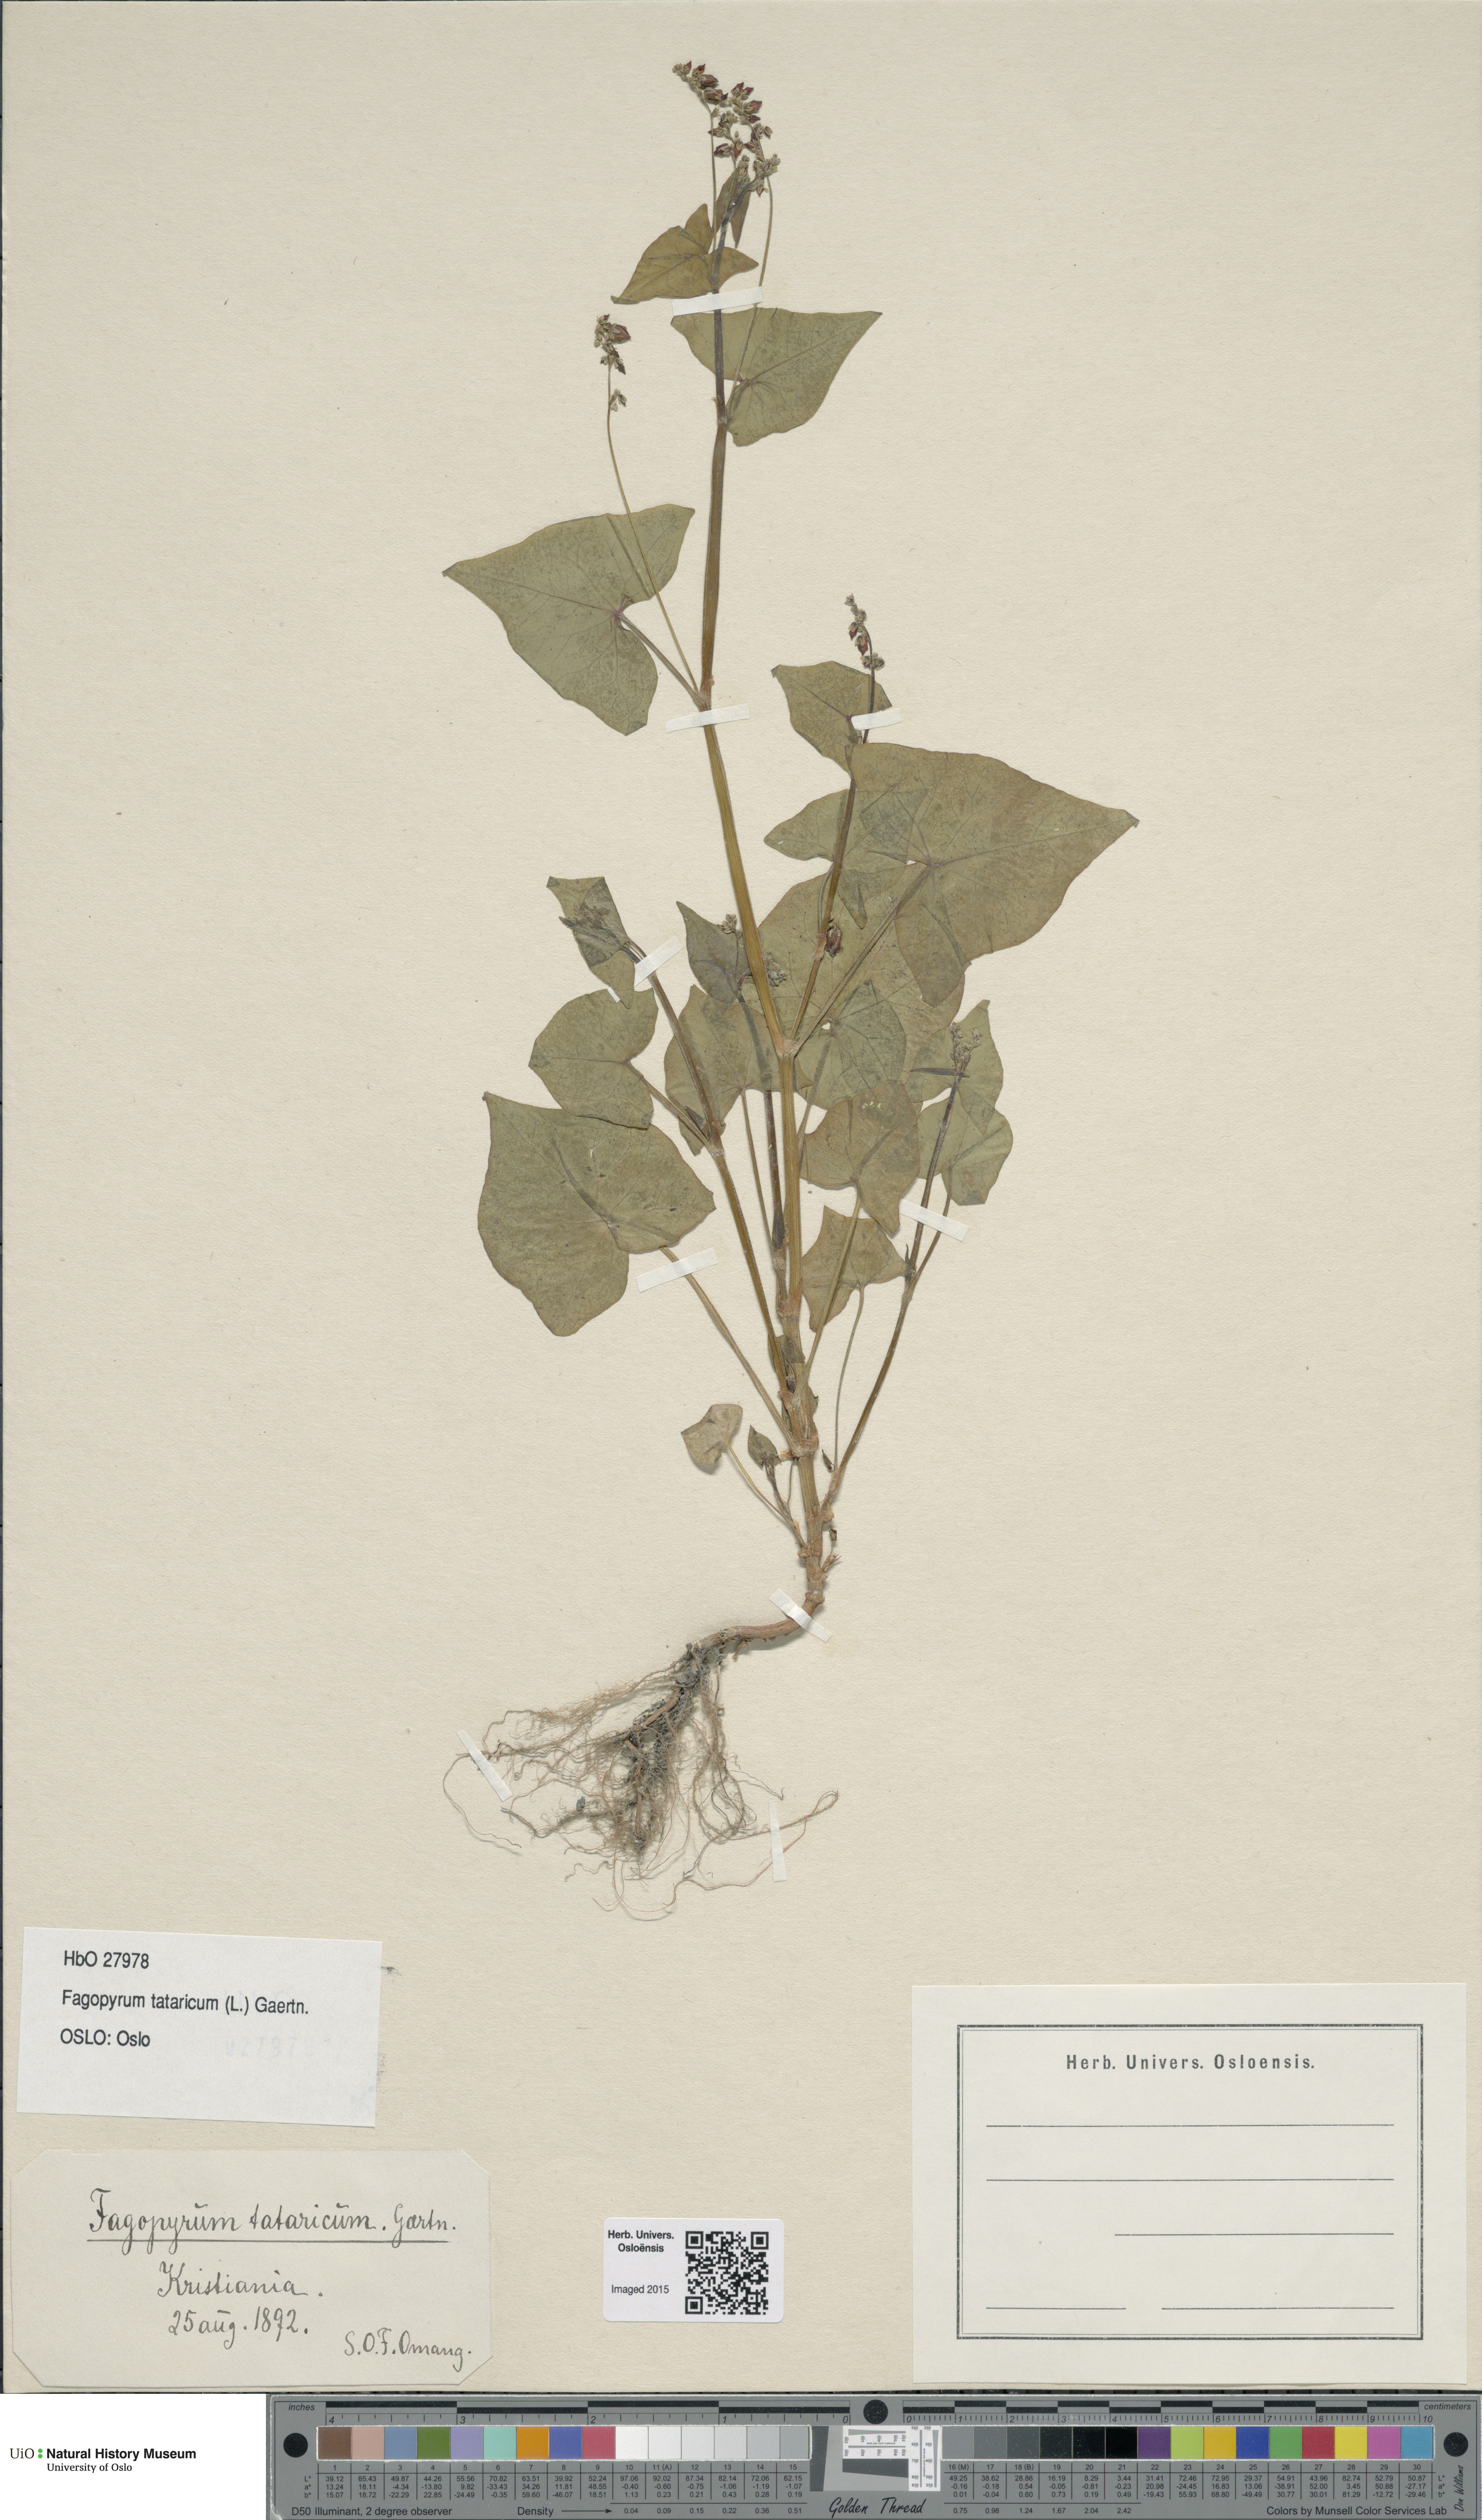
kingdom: Plantae
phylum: Tracheophyta
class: Magnoliopsida
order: Caryophyllales
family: Polygonaceae
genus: Fagopyrum
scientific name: Fagopyrum tataricum
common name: Green buckwheat
